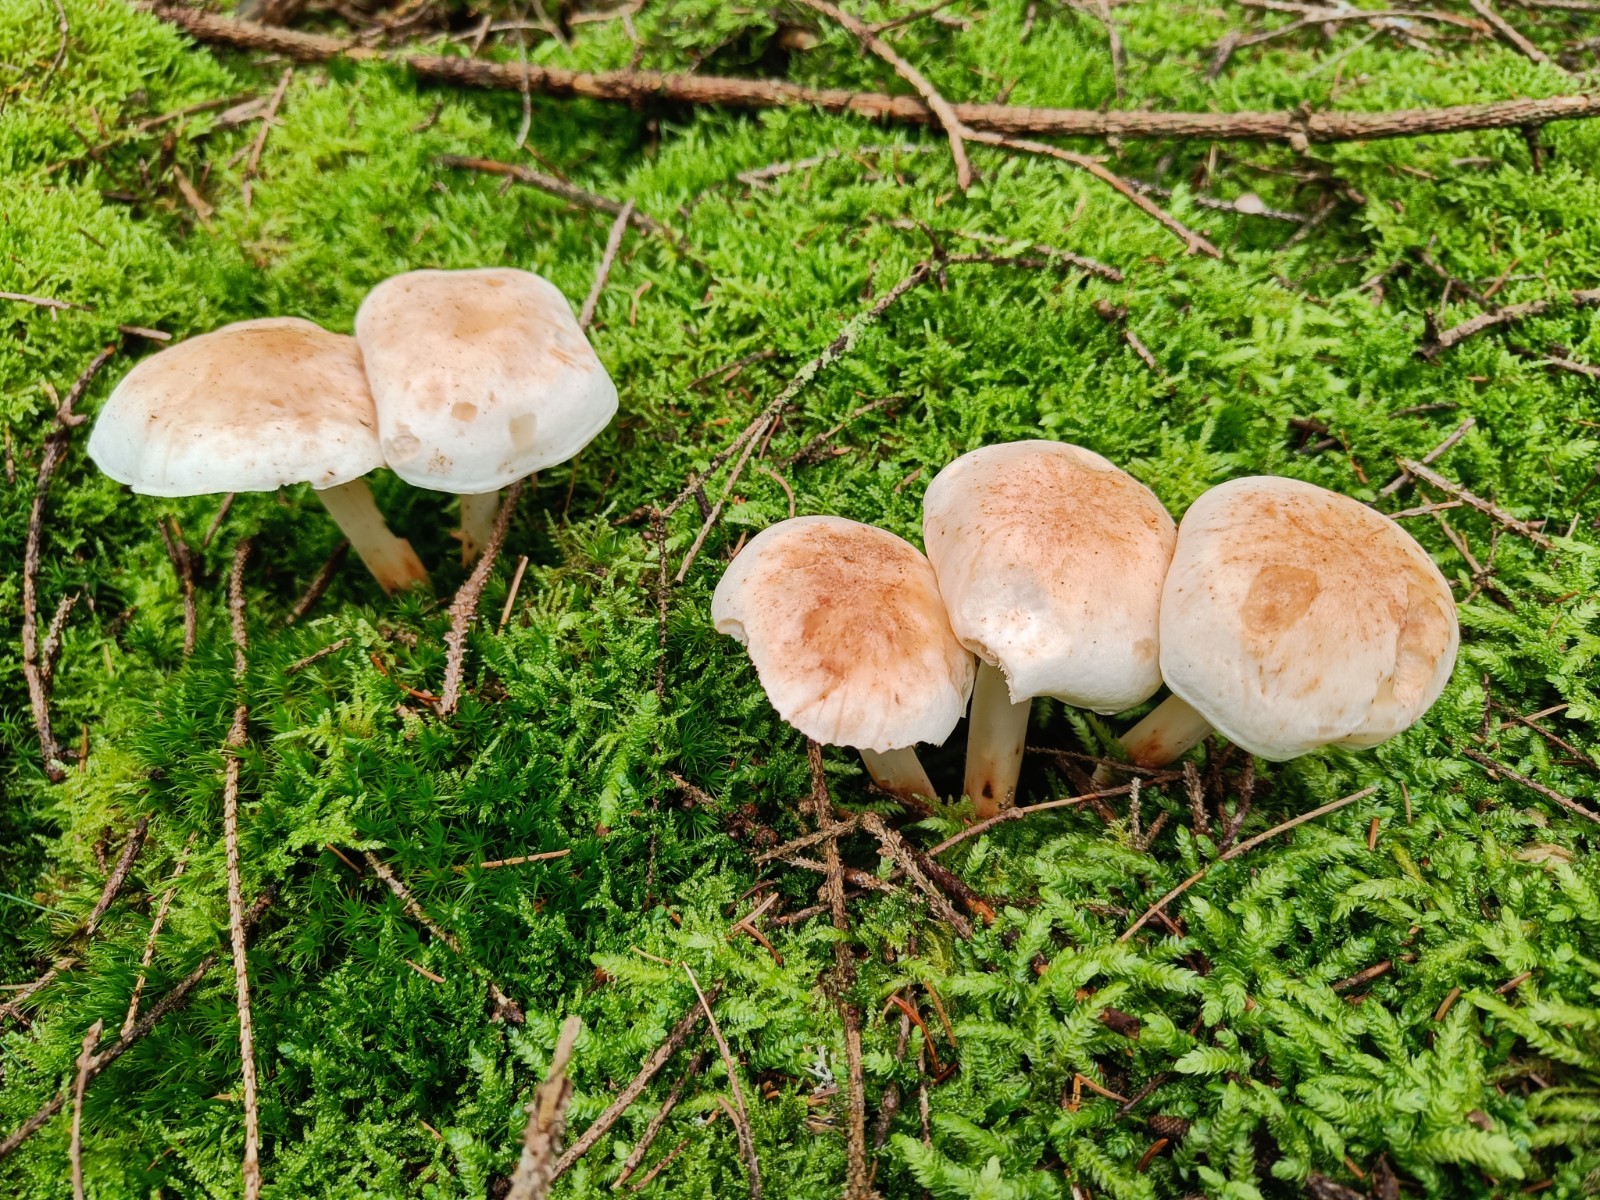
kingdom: Fungi
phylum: Basidiomycota
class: Agaricomycetes
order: Agaricales
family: Omphalotaceae
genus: Rhodocollybia
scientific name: Rhodocollybia maculata
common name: plettet fladhat
